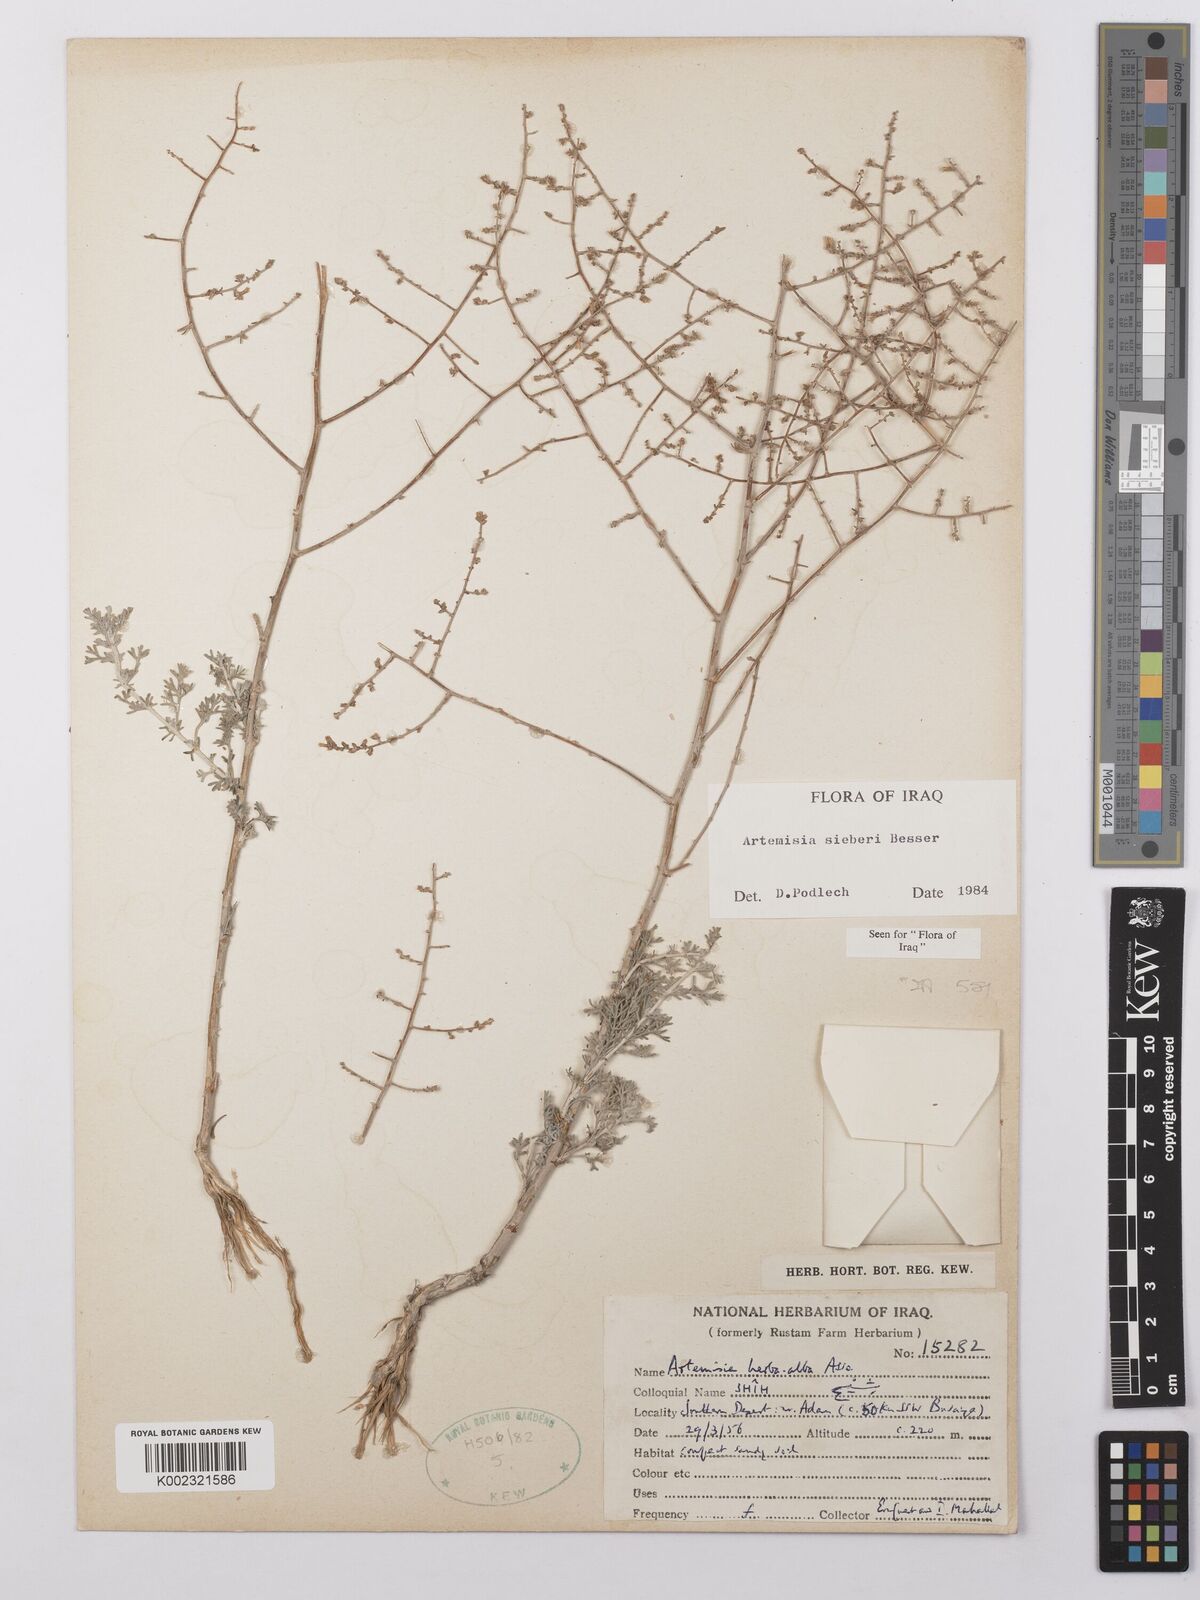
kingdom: Plantae
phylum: Tracheophyta
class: Magnoliopsida
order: Asterales
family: Asteraceae
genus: Artemisia
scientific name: Artemisia sieberi
